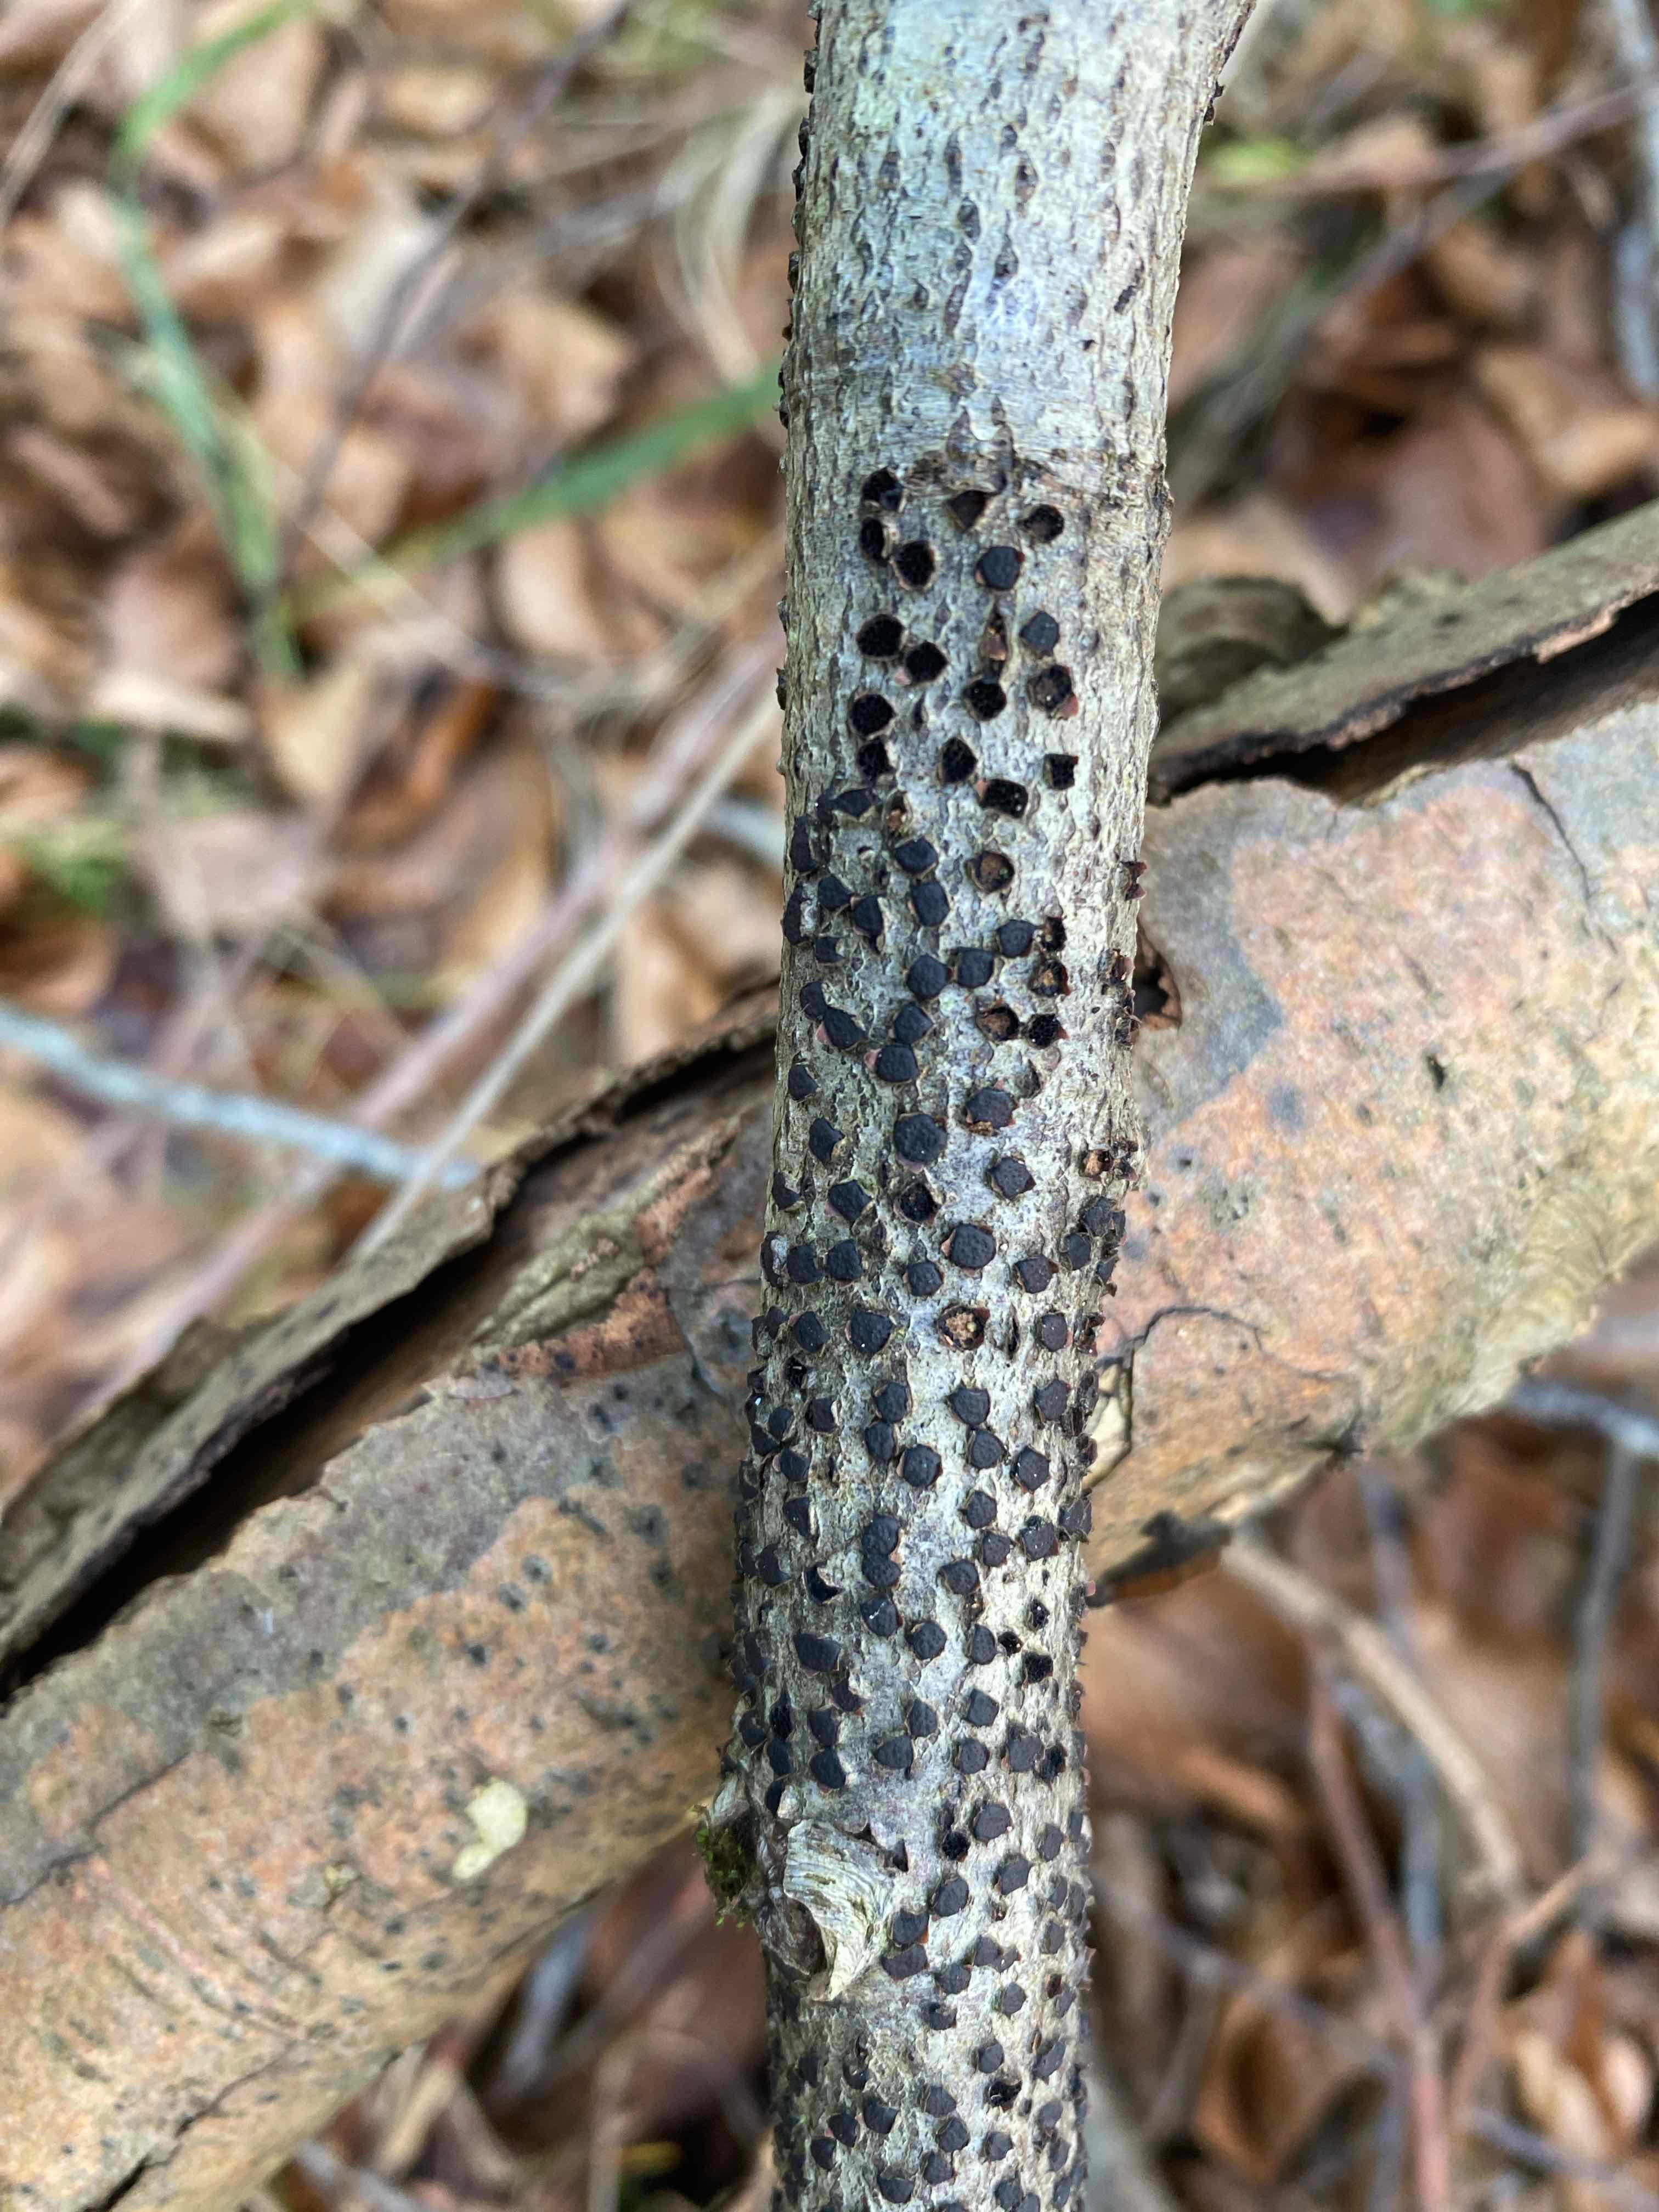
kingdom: Fungi
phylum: Ascomycota
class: Sordariomycetes
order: Xylariales
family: Diatrypaceae
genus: Diatrype
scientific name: Diatrype disciformis
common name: kant-kulskorpe
